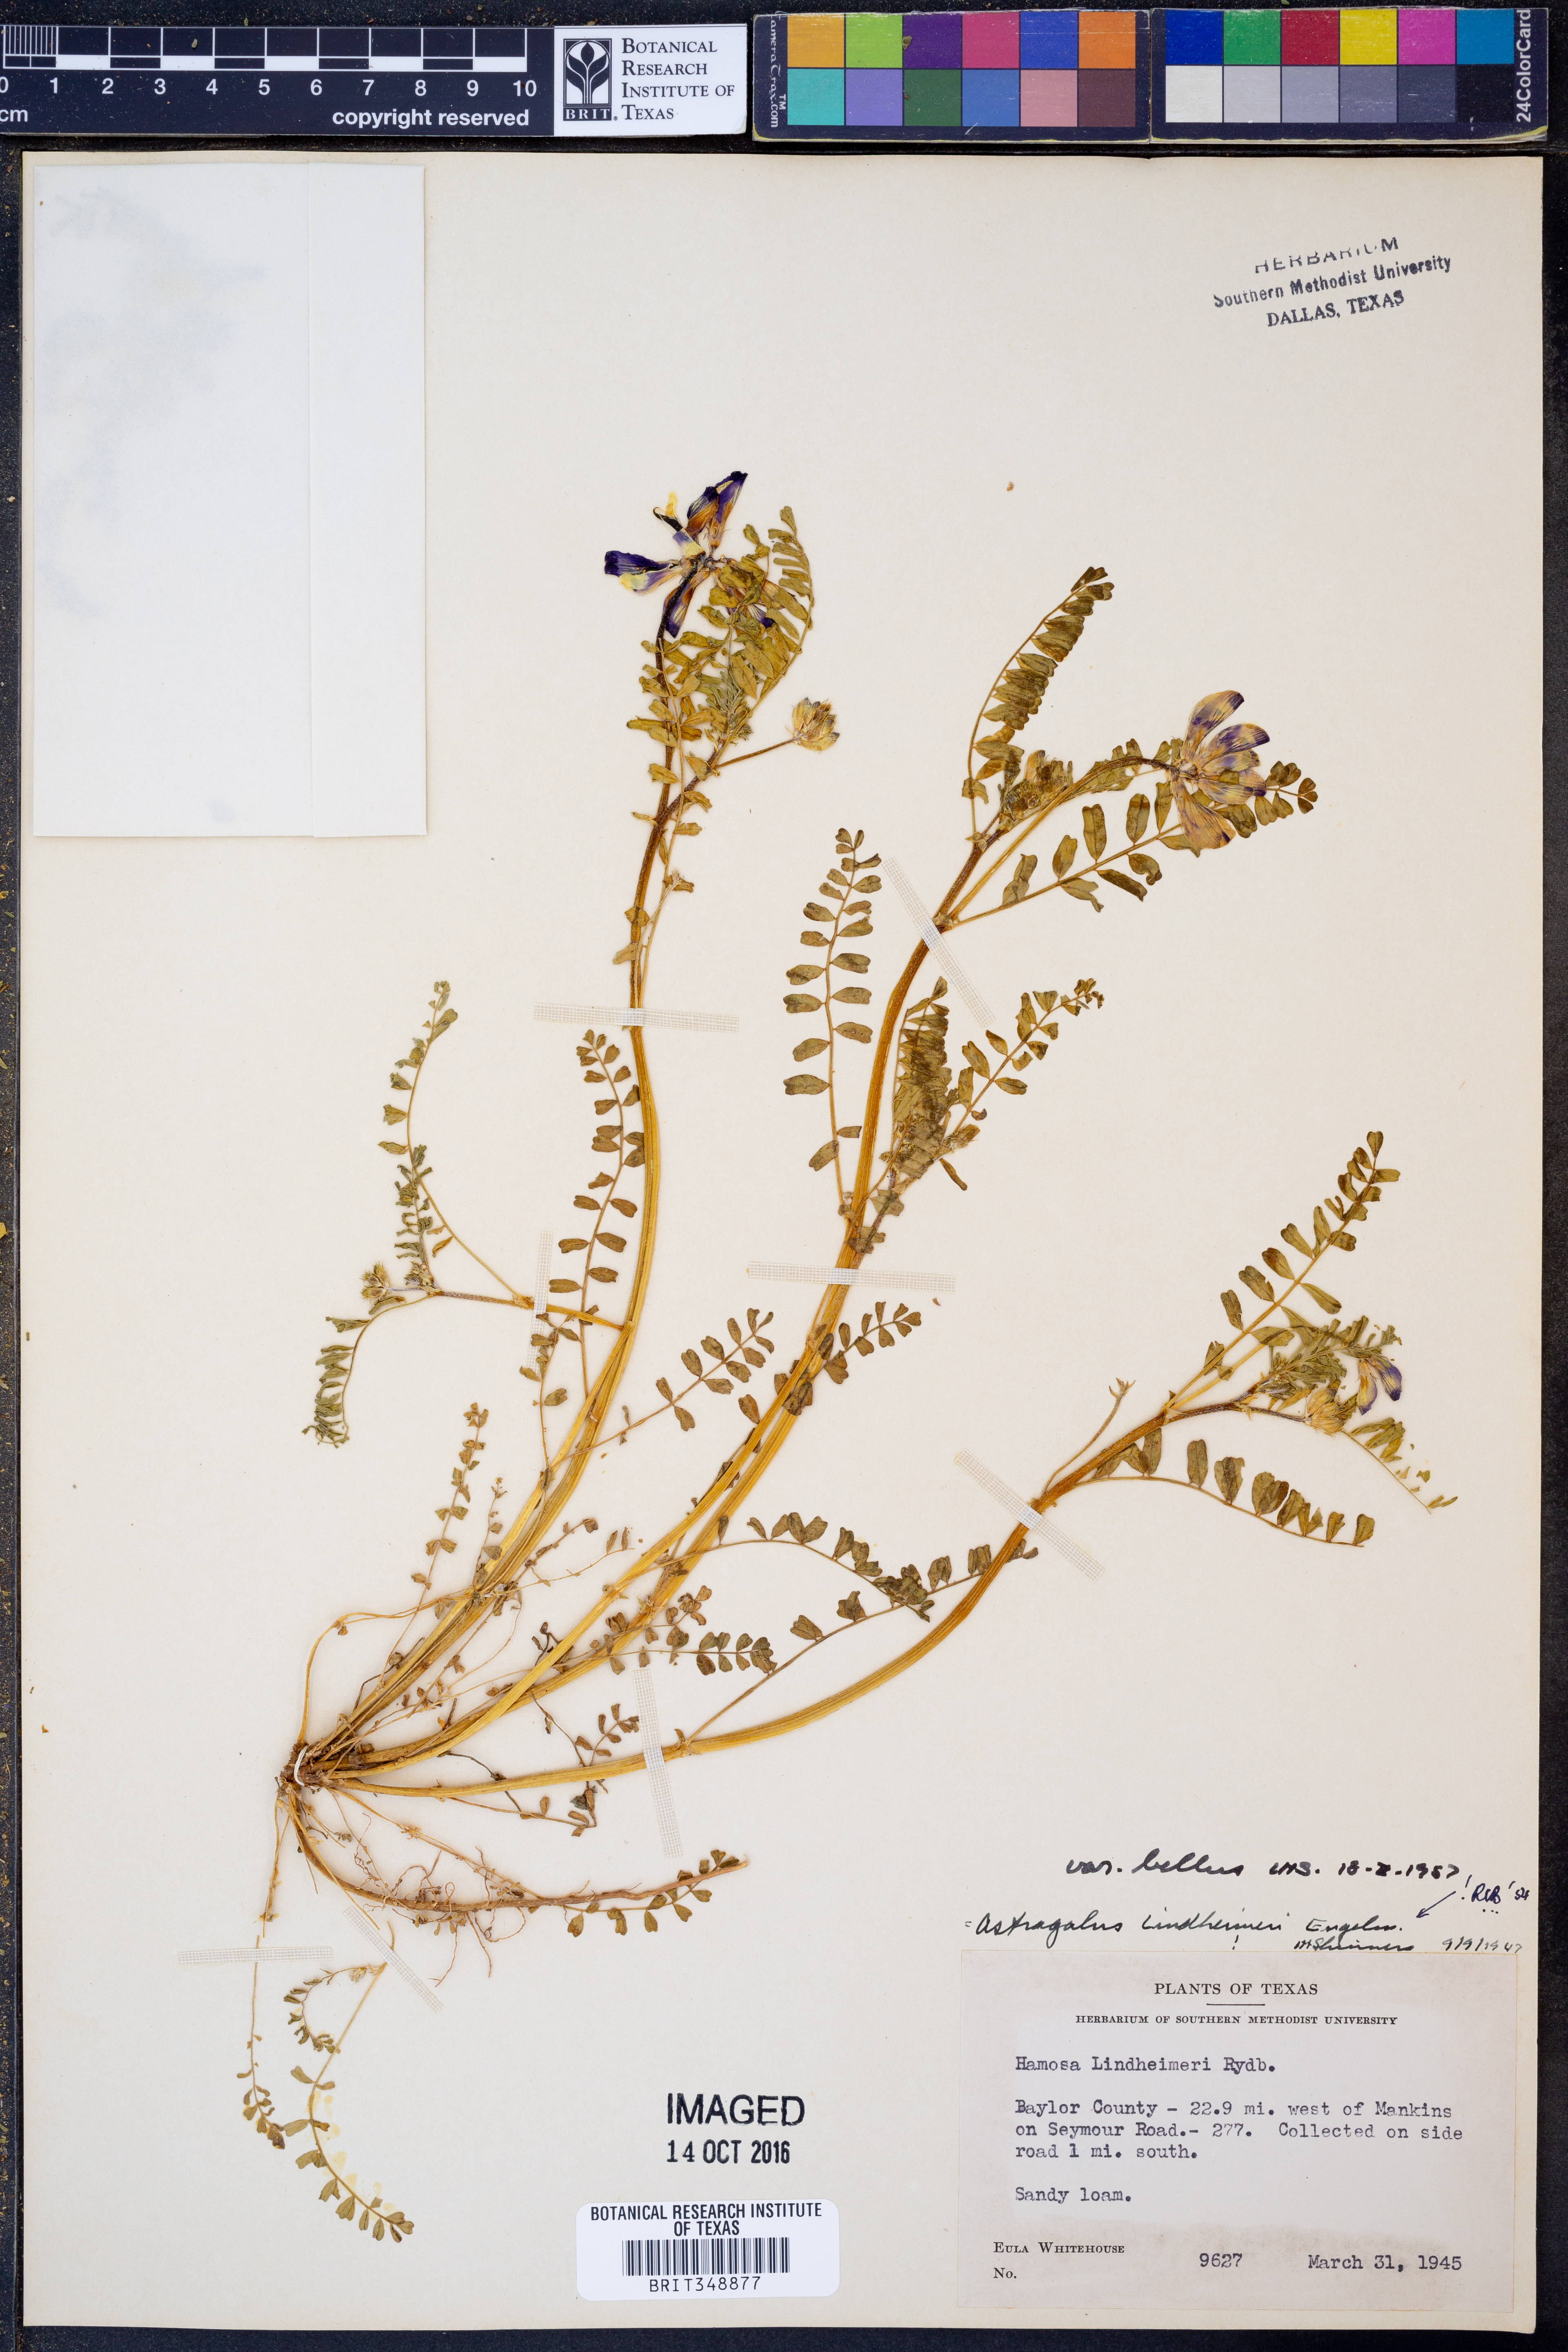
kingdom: Plantae
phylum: Tracheophyta
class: Magnoliopsida
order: Fabales
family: Fabaceae
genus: Astragalus
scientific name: Astragalus lindheimeri
